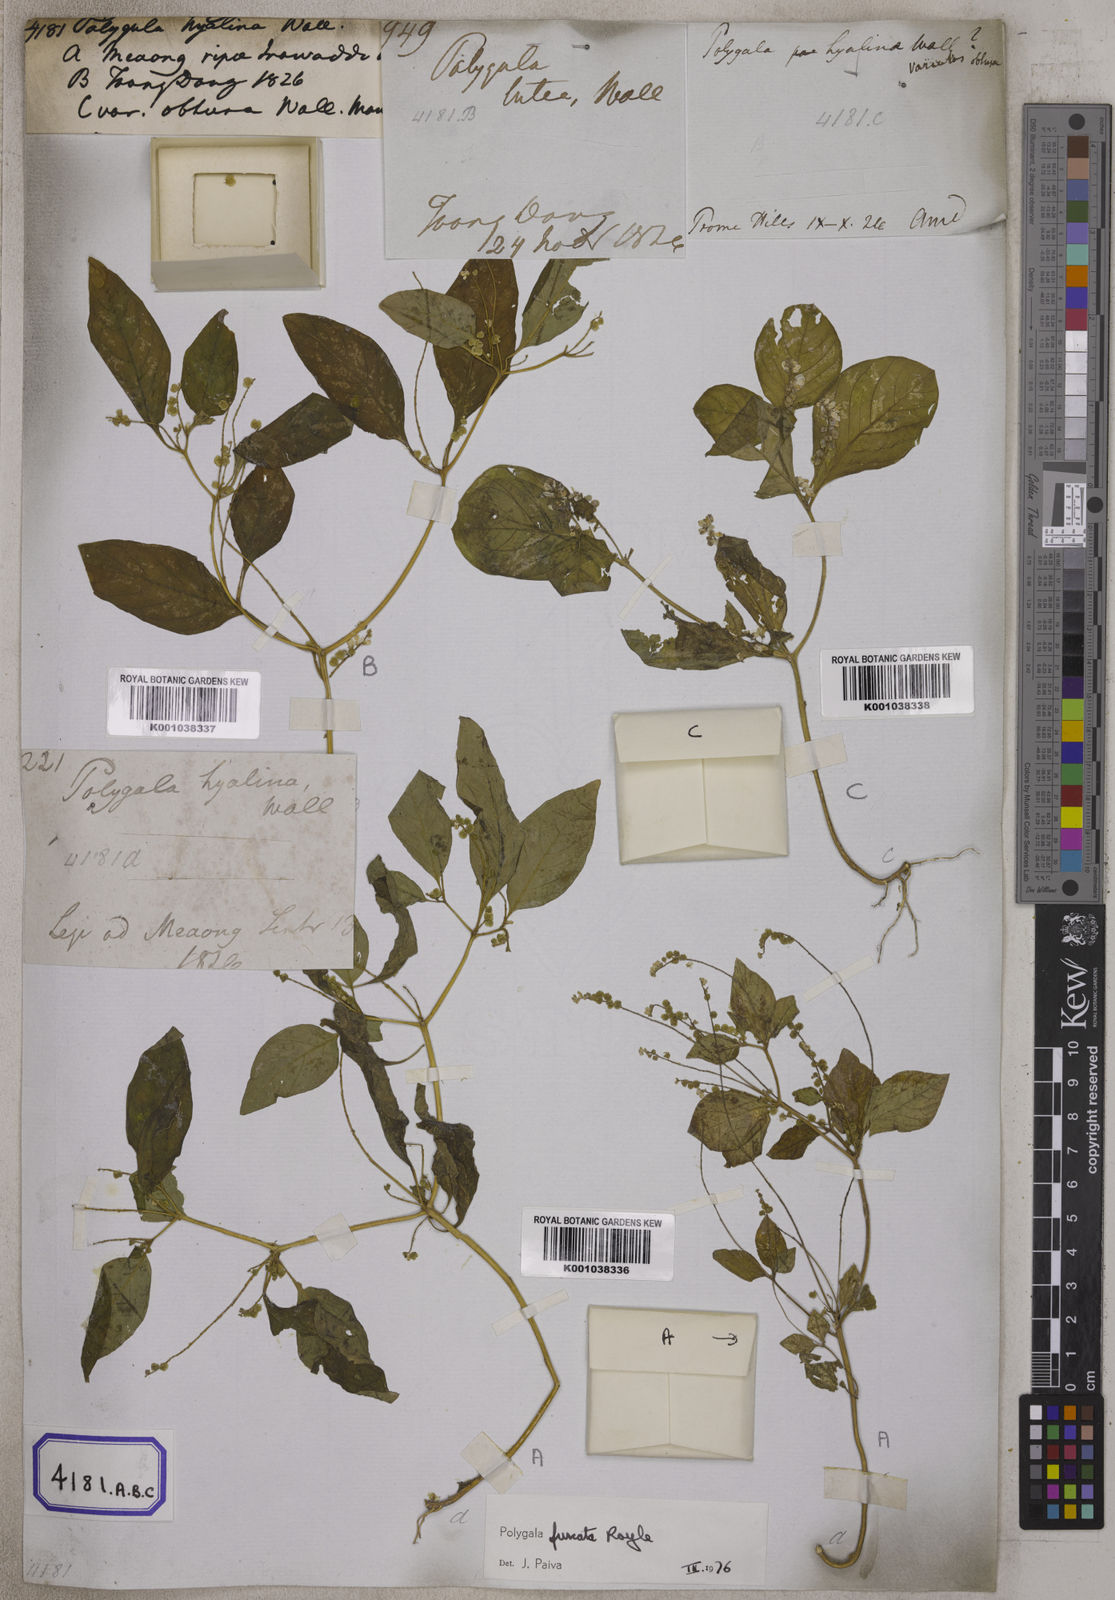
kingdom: Plantae
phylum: Tracheophyta
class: Magnoliopsida
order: Fabales
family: Polygalaceae
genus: Polygala
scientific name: Polygala furcata
